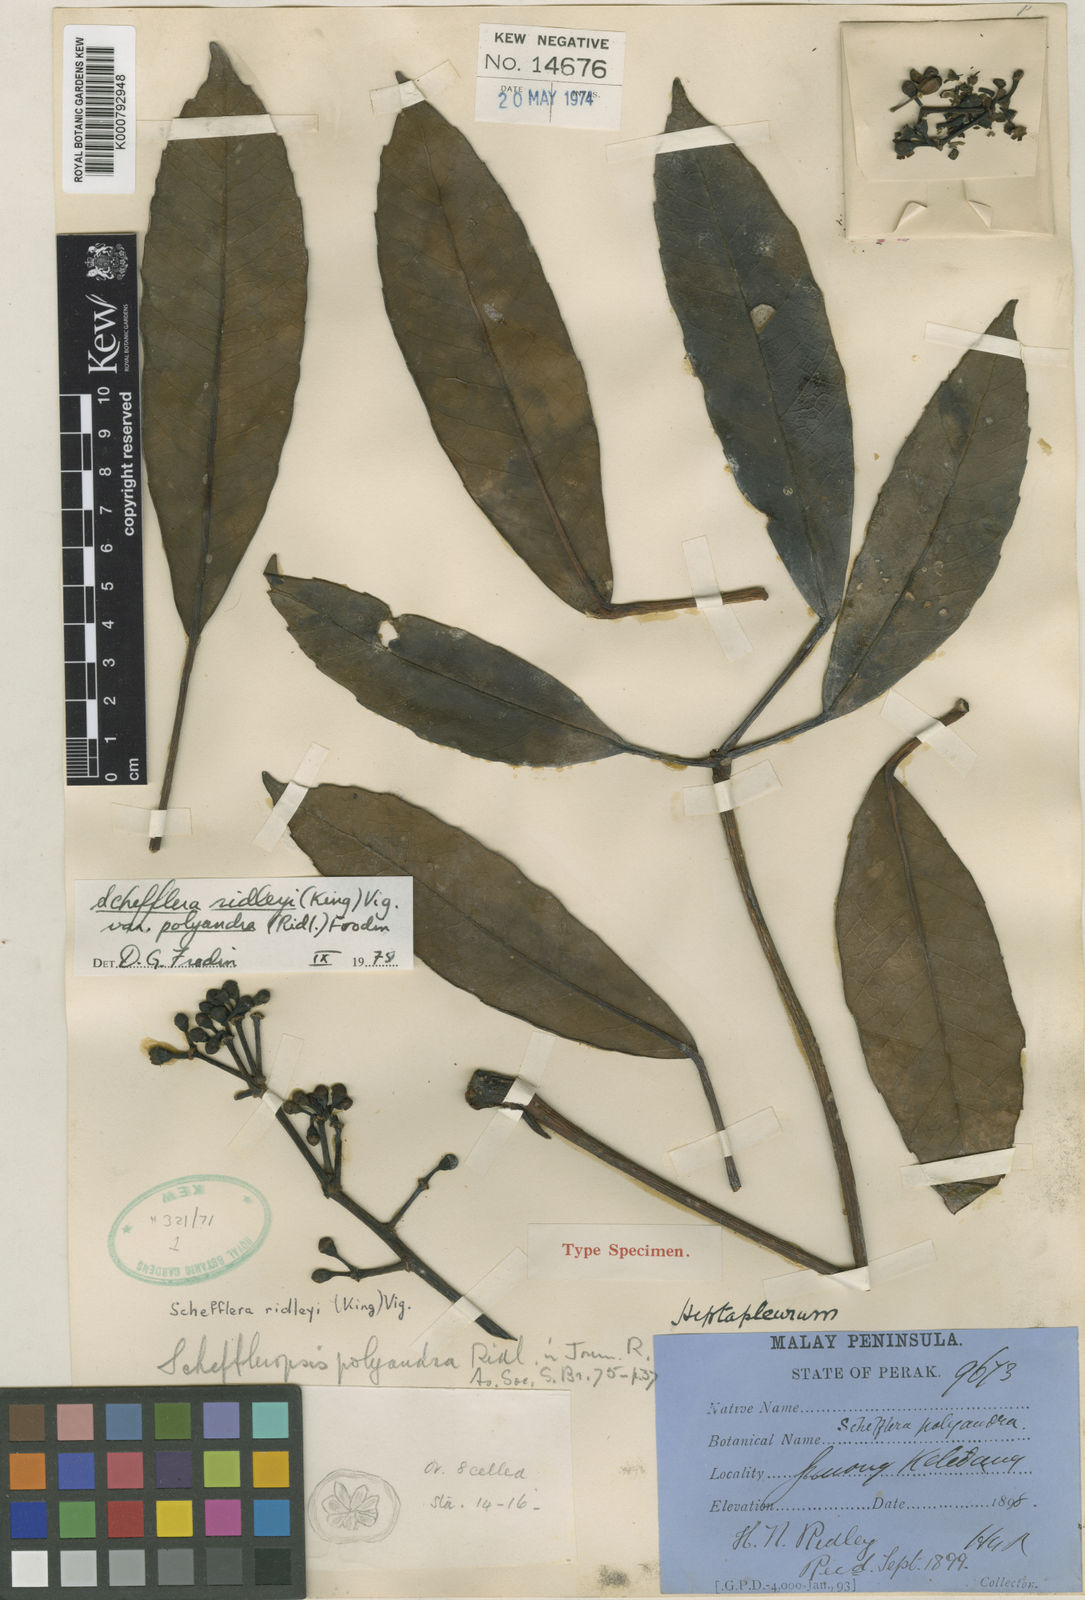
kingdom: Plantae
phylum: Tracheophyta
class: Magnoliopsida
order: Apiales
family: Araliaceae
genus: Heptapleurum
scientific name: Heptapleurum polyandrum
